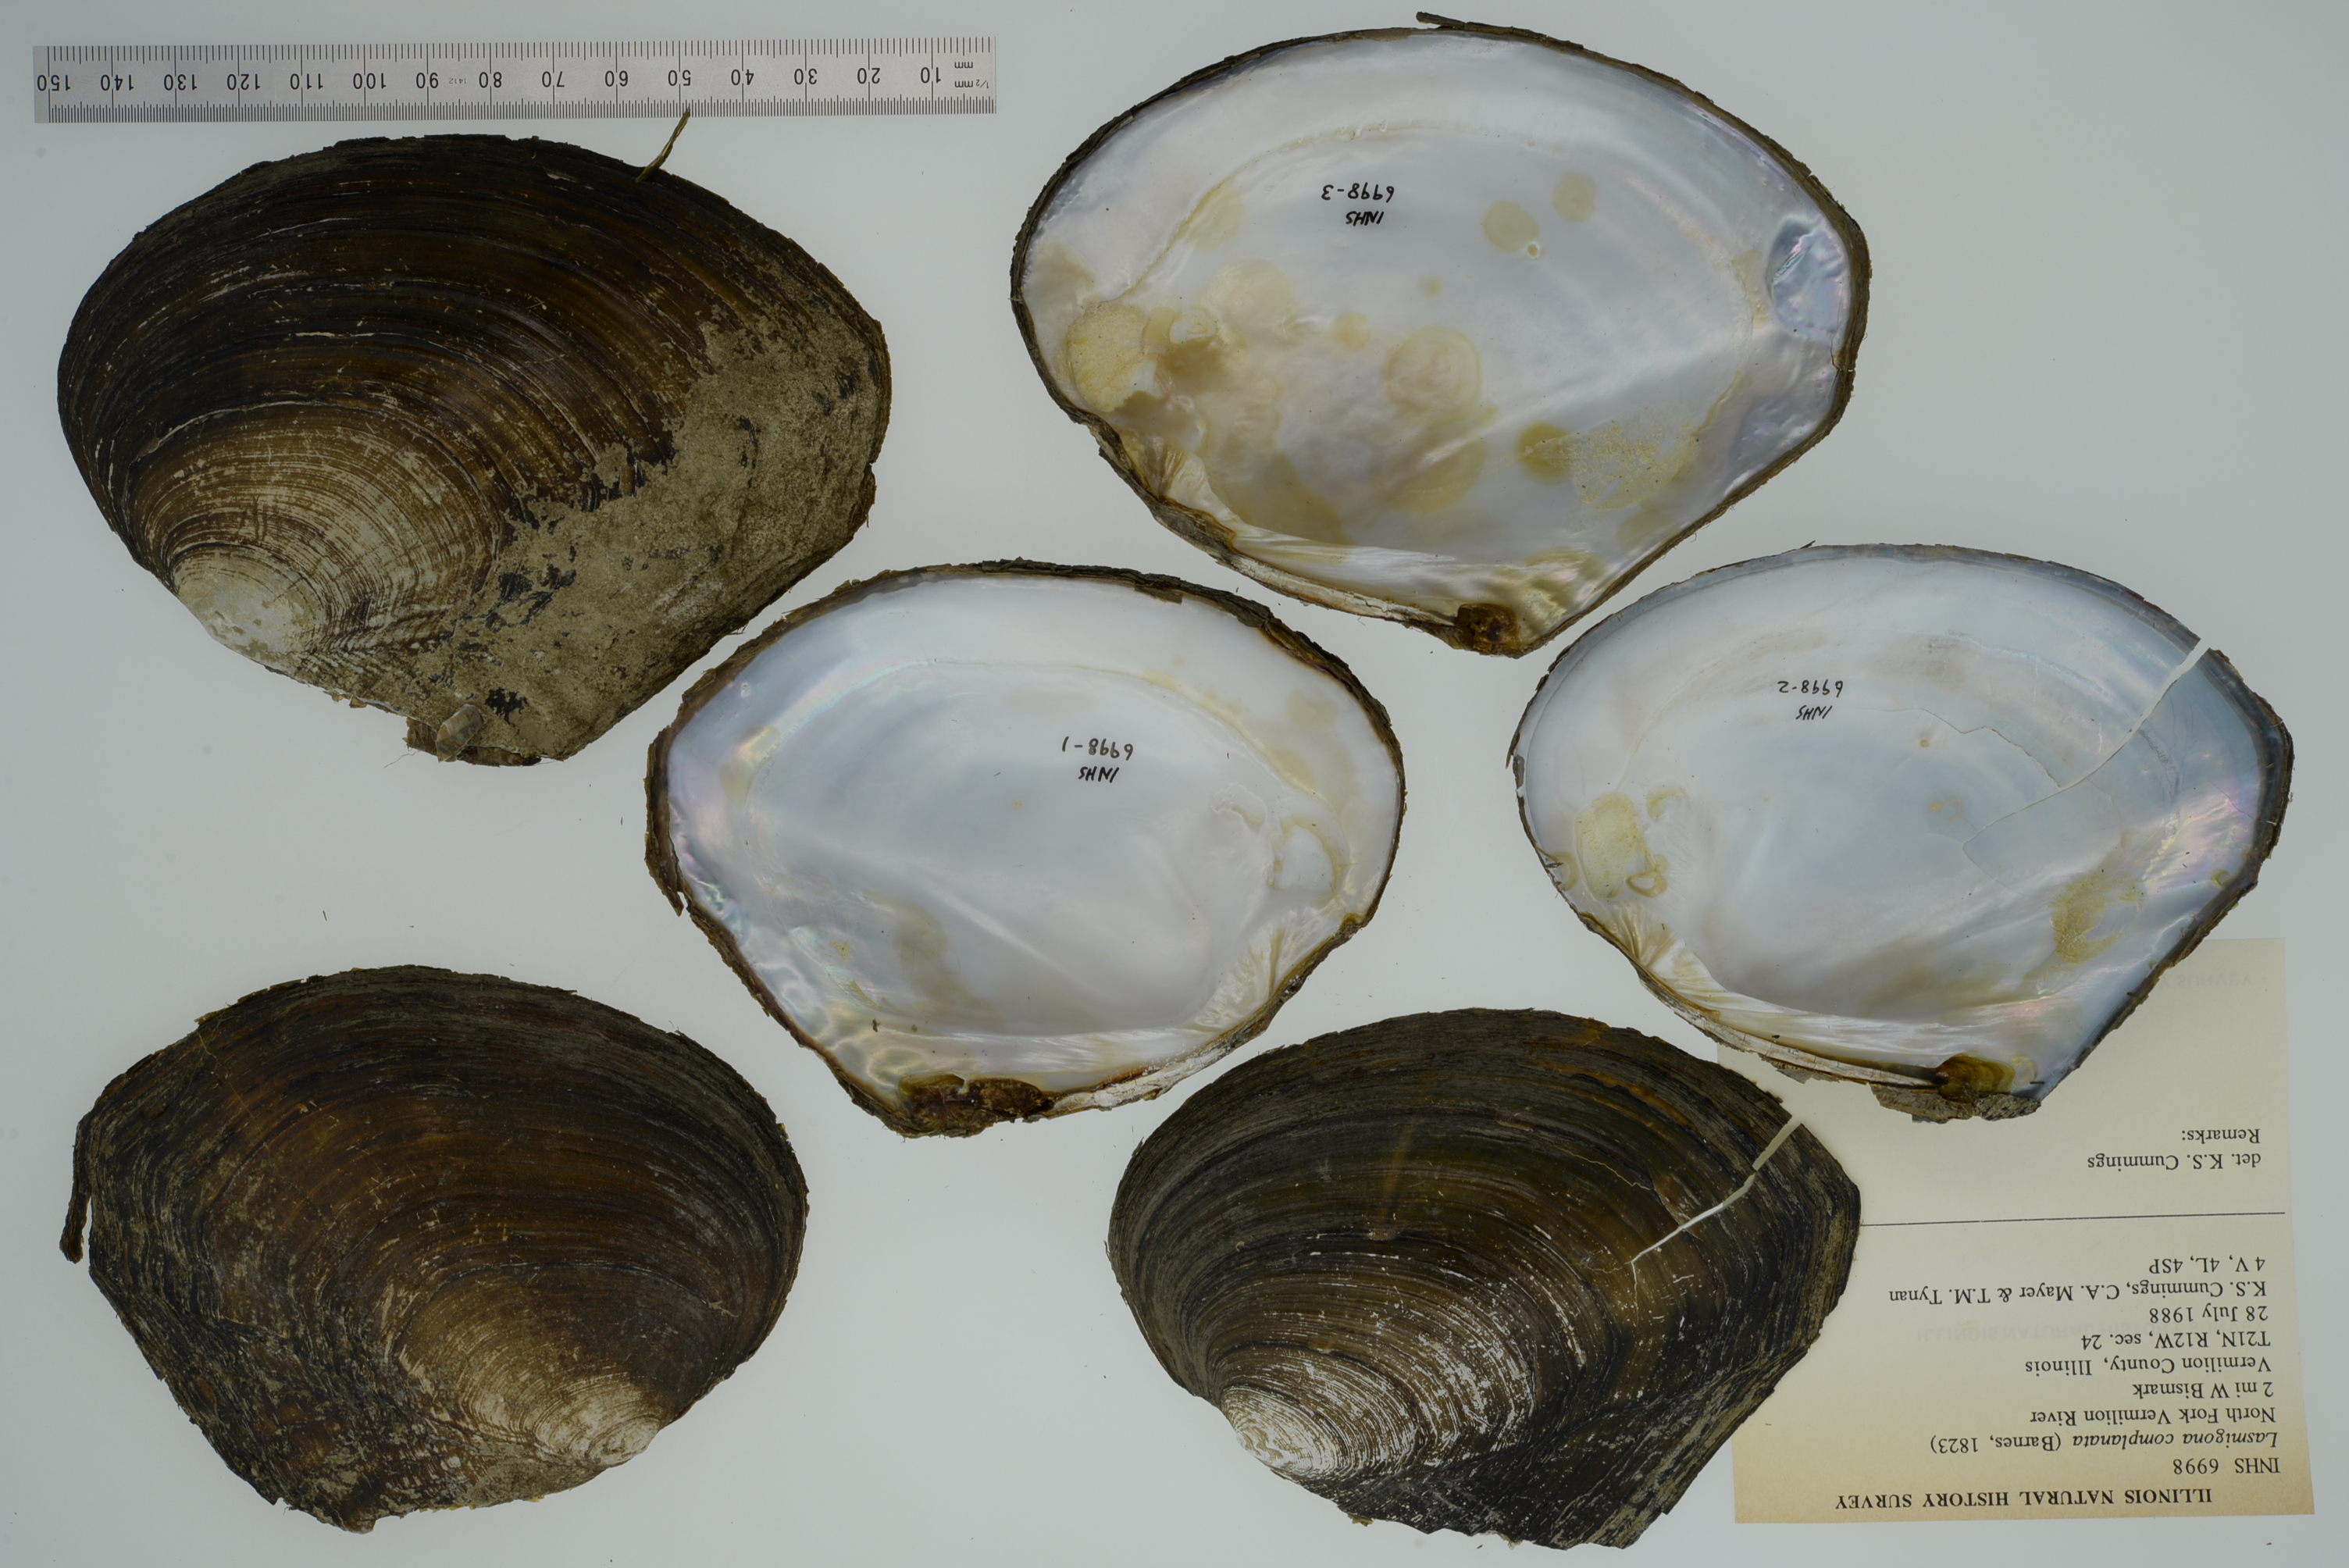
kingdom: Animalia
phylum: Mollusca
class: Bivalvia
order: Unionida
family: Unionidae
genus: Lasmigona
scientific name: Lasmigona complanata
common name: White heelsplitter
